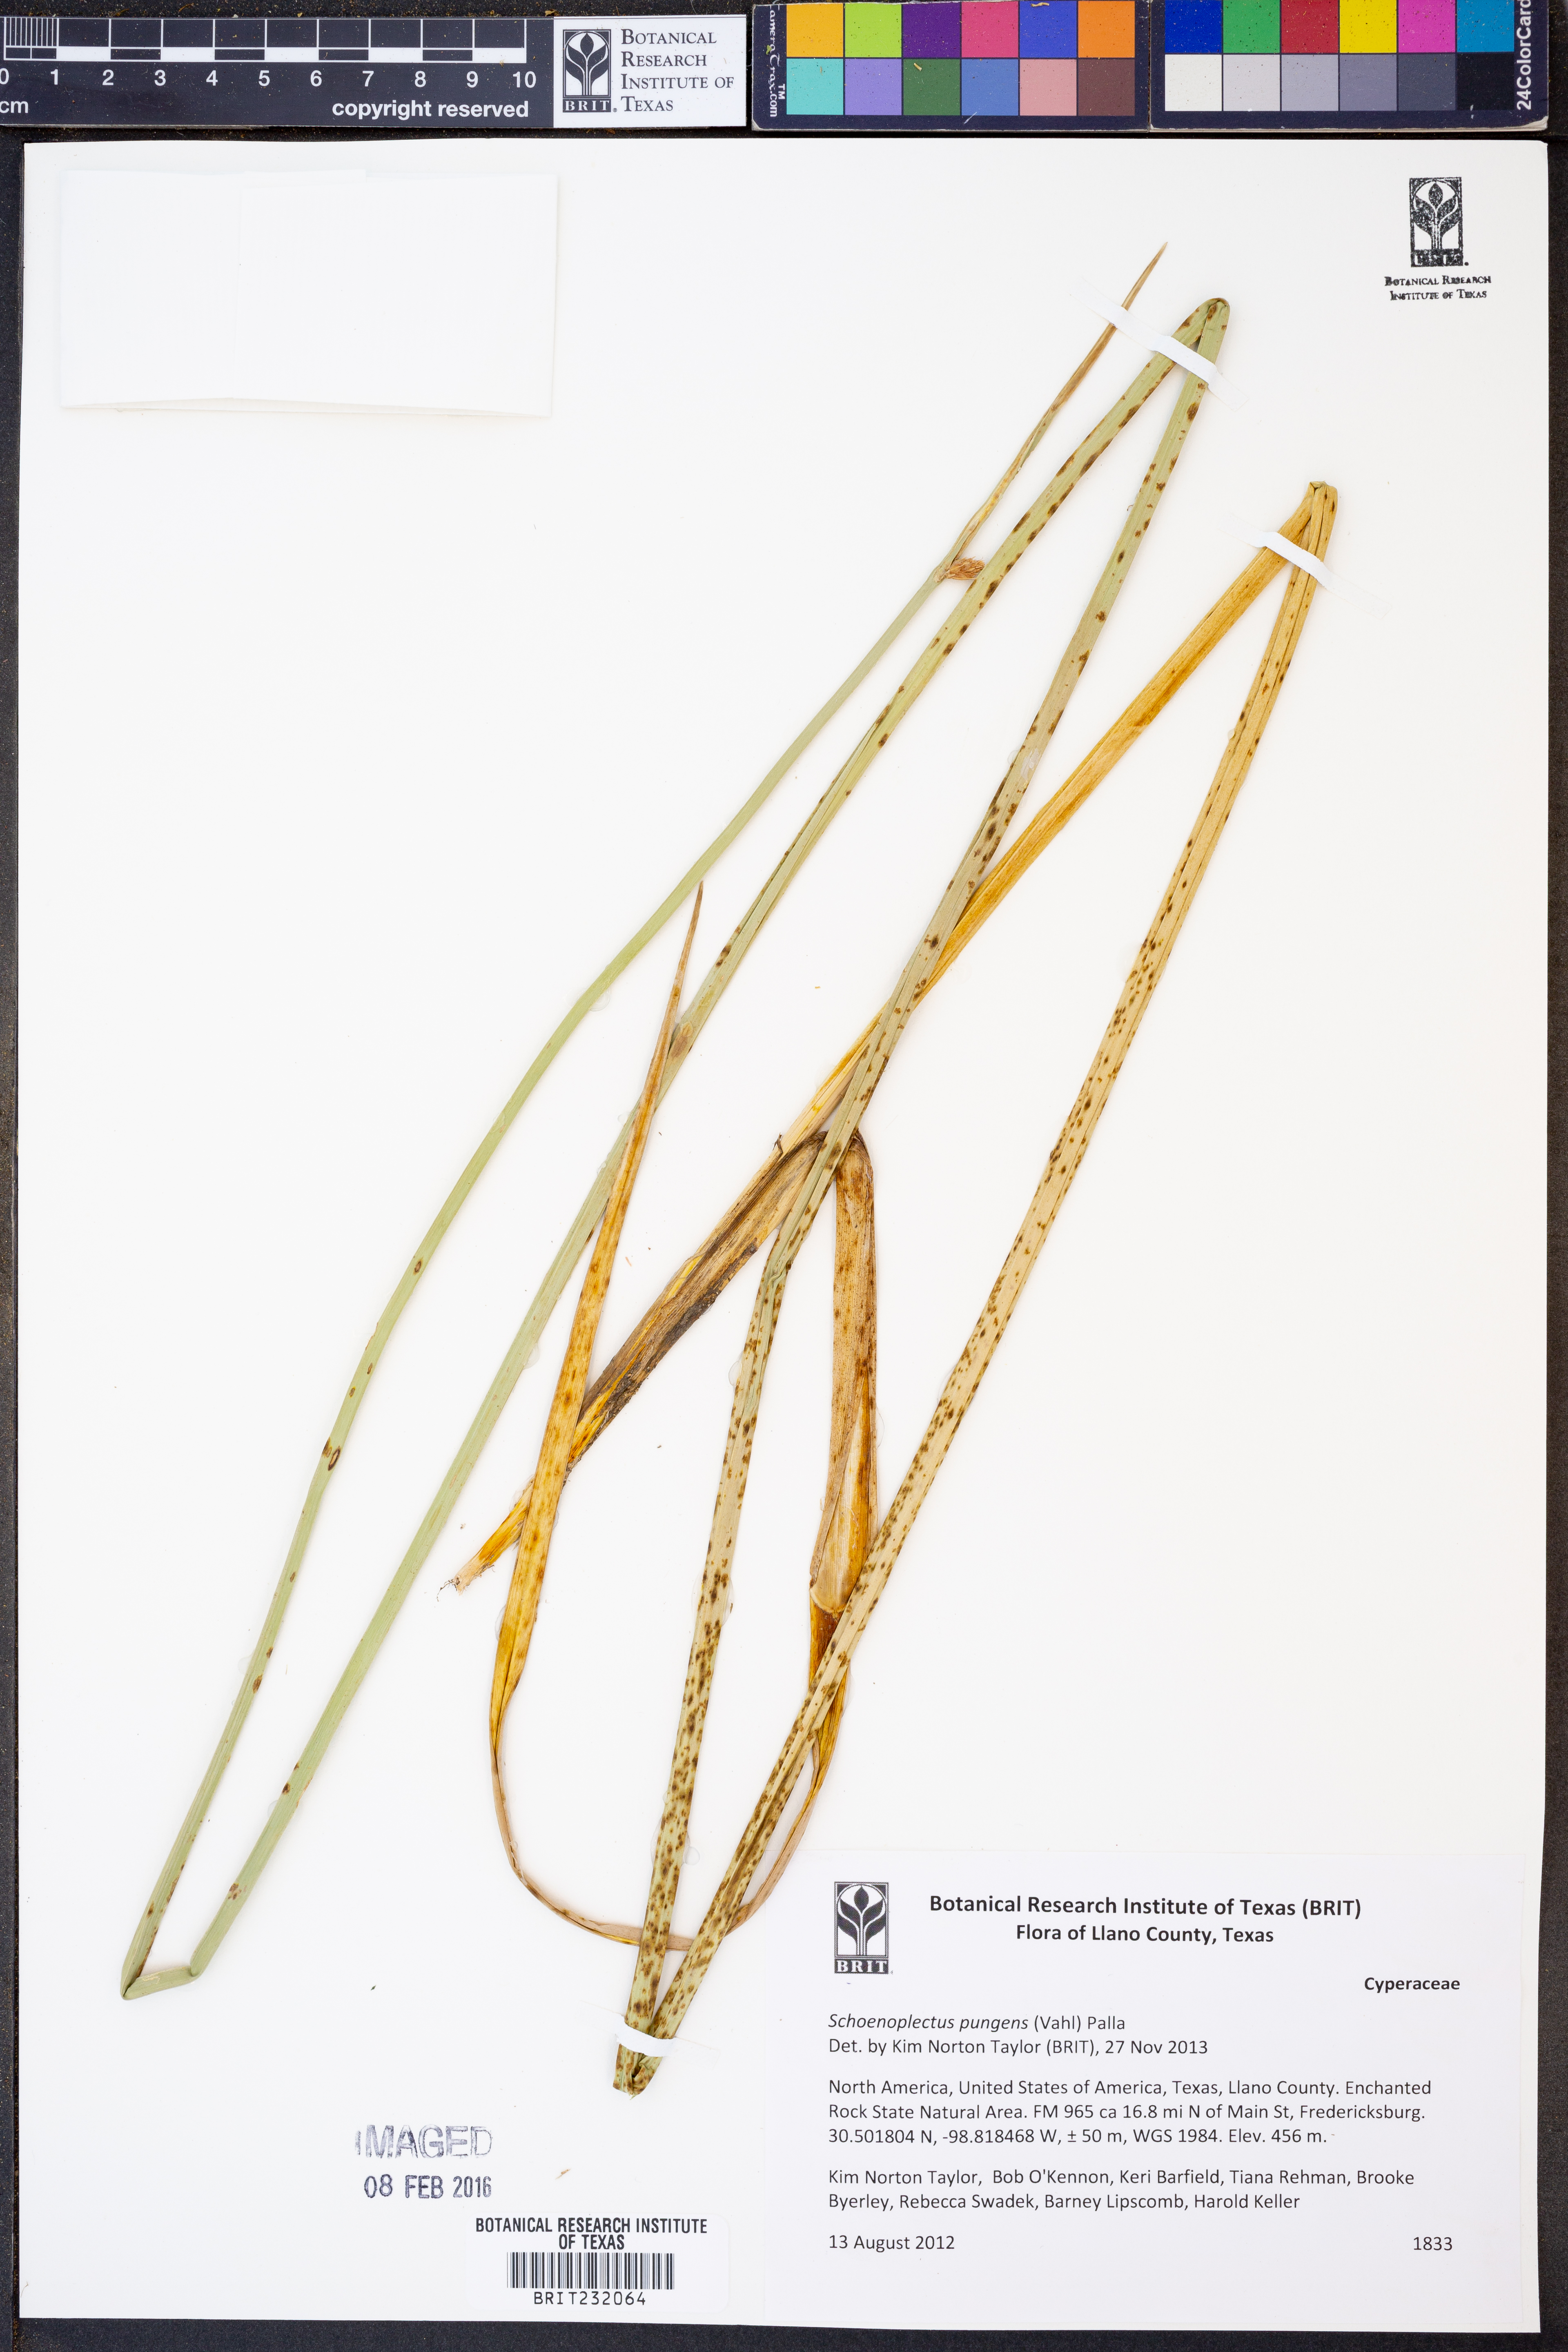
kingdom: Plantae
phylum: Tracheophyta
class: Liliopsida
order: Poales
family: Cyperaceae
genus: Schoenoplectus
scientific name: Schoenoplectus pungens
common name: Sharp club-rush
